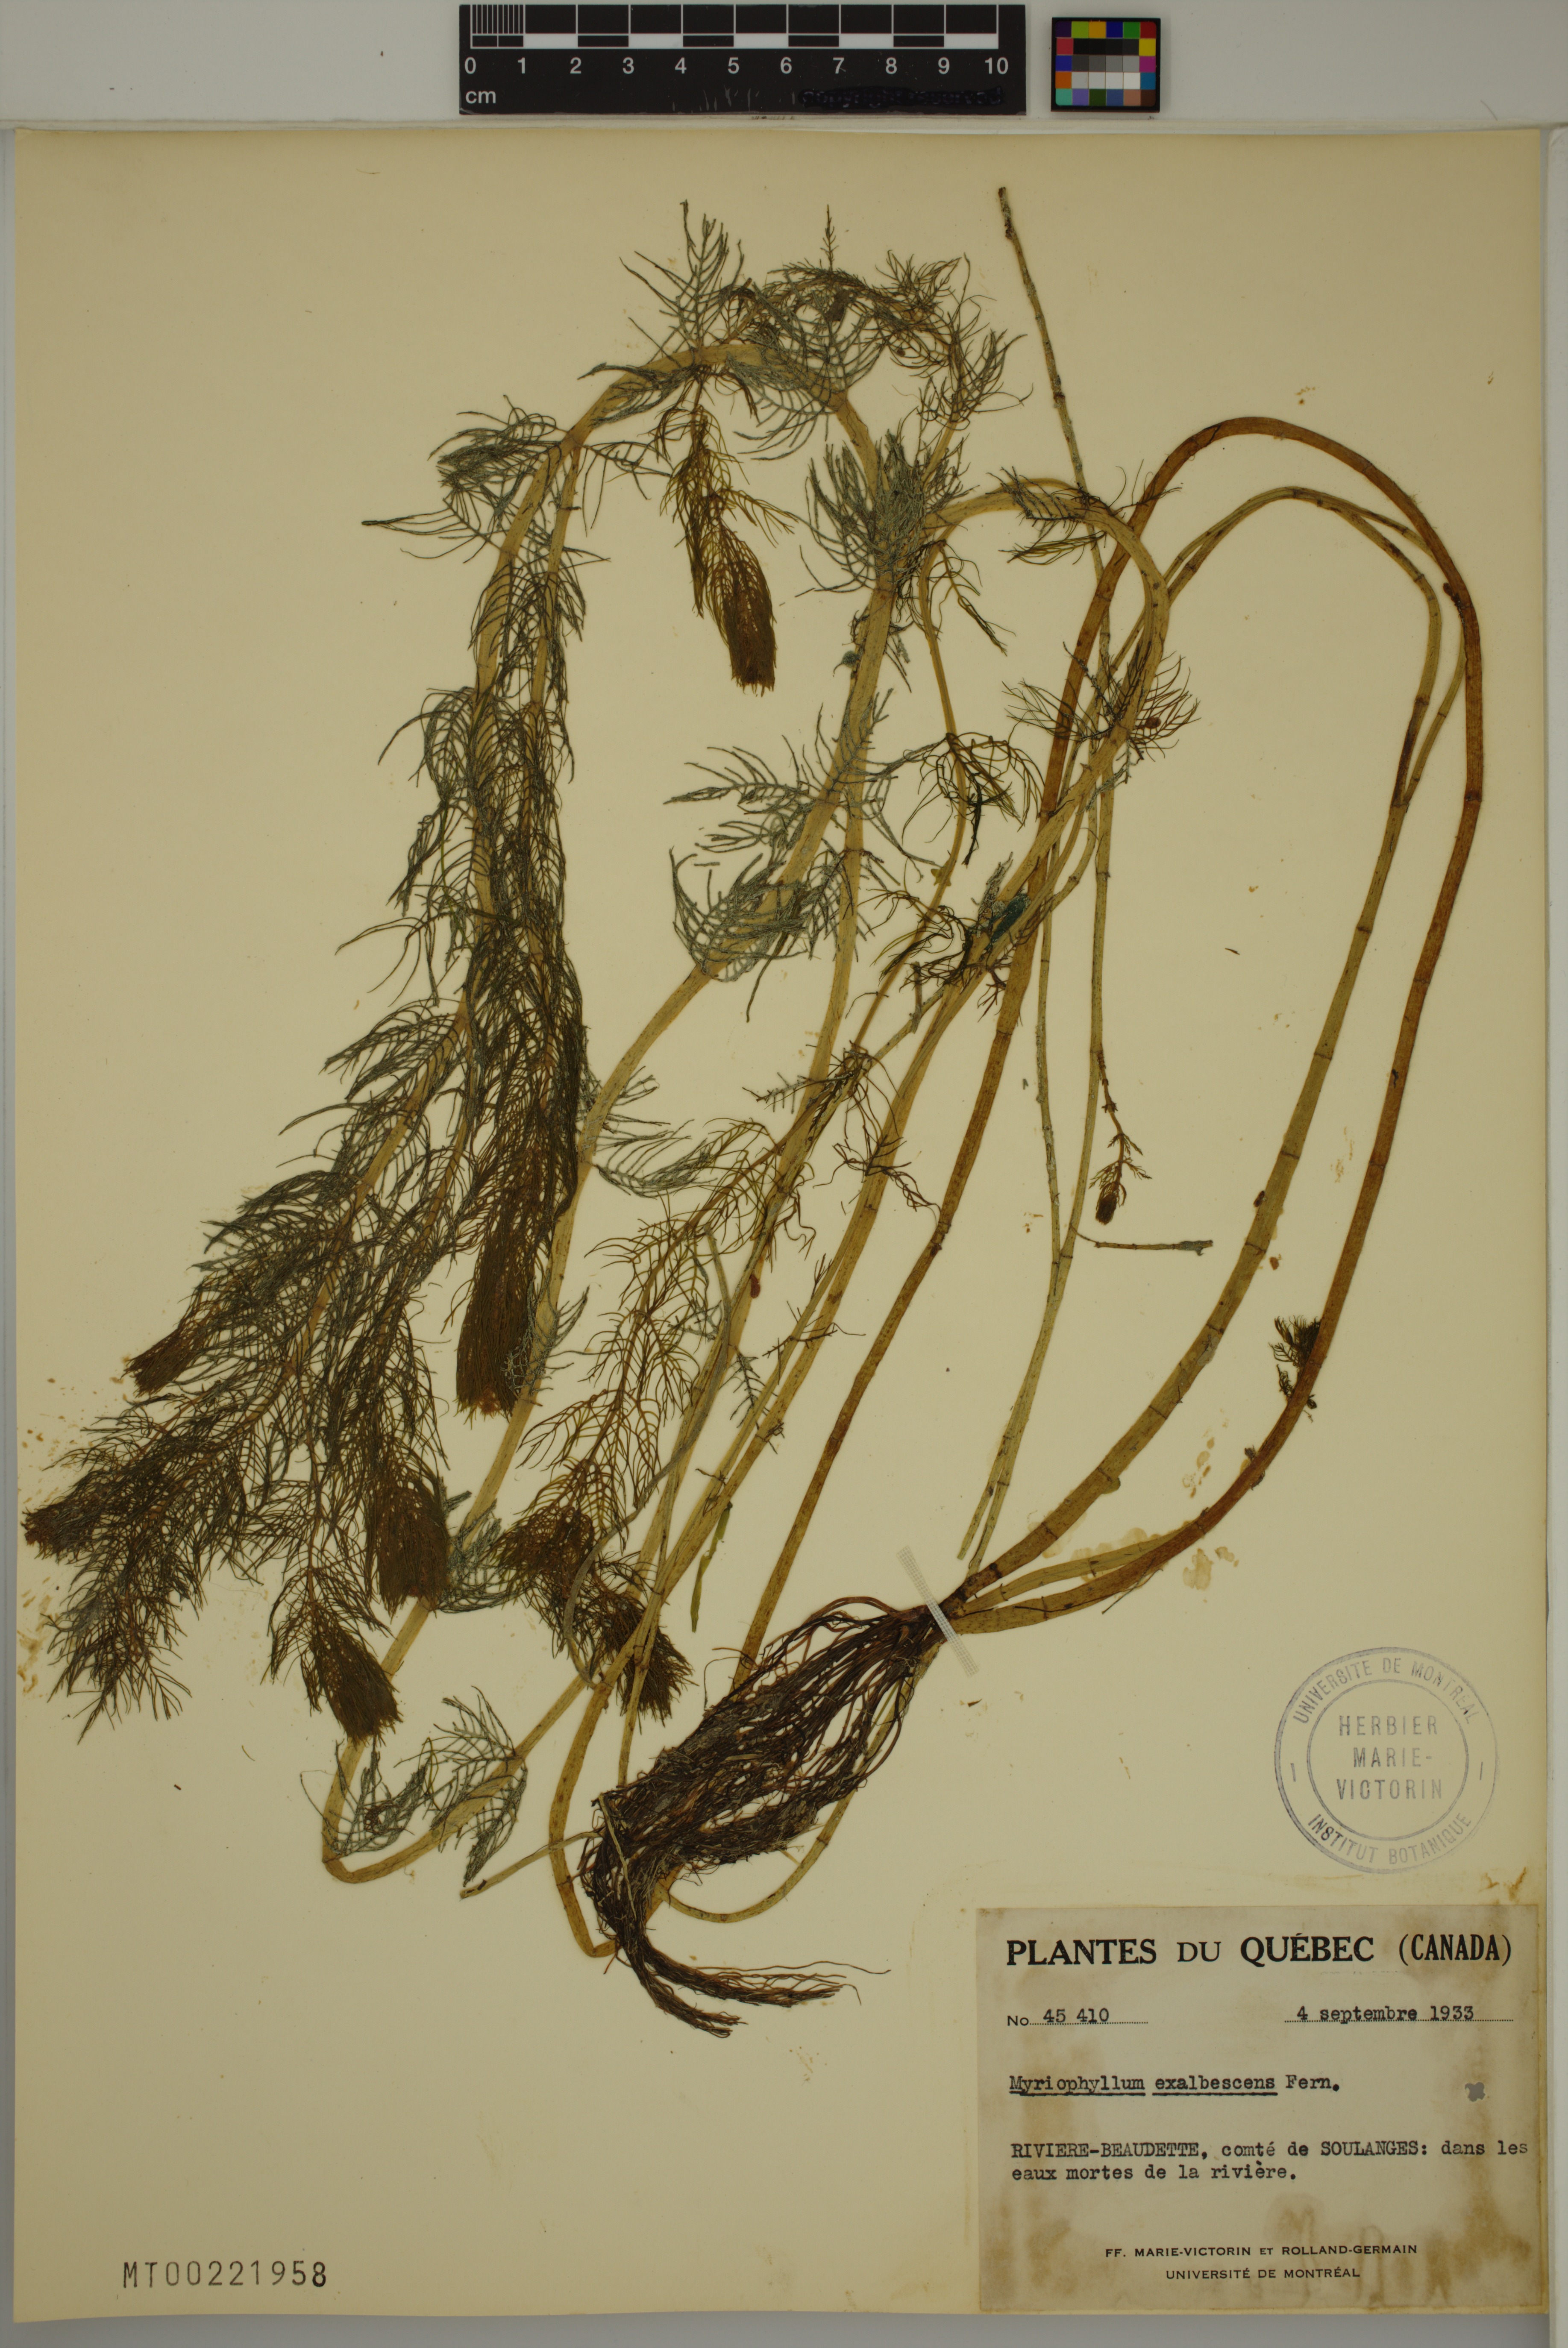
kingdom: Plantae
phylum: Tracheophyta
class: Magnoliopsida
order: Saxifragales
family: Haloragaceae
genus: Myriophyllum
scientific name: Myriophyllum sibiricum
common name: Siberian water-milfoil
